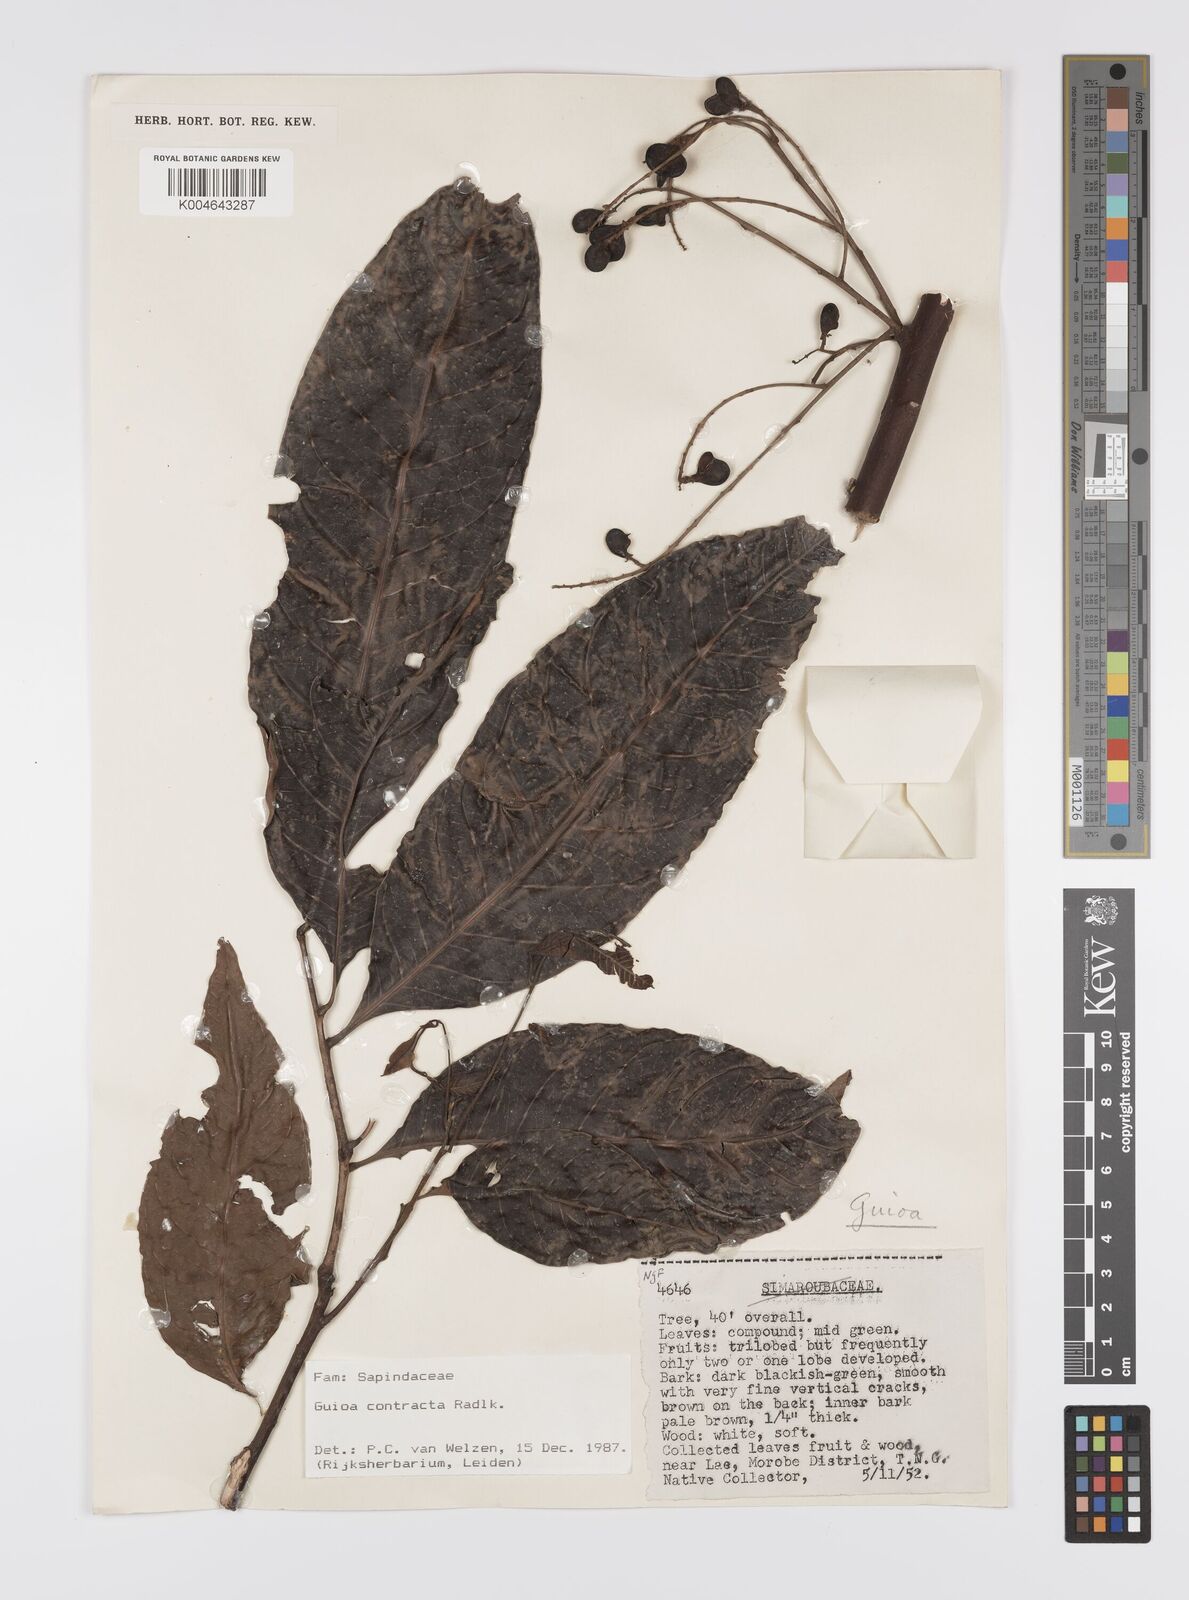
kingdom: Plantae
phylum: Tracheophyta
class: Magnoliopsida
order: Sapindales
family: Sapindaceae
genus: Guioa
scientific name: Guioa contracta
